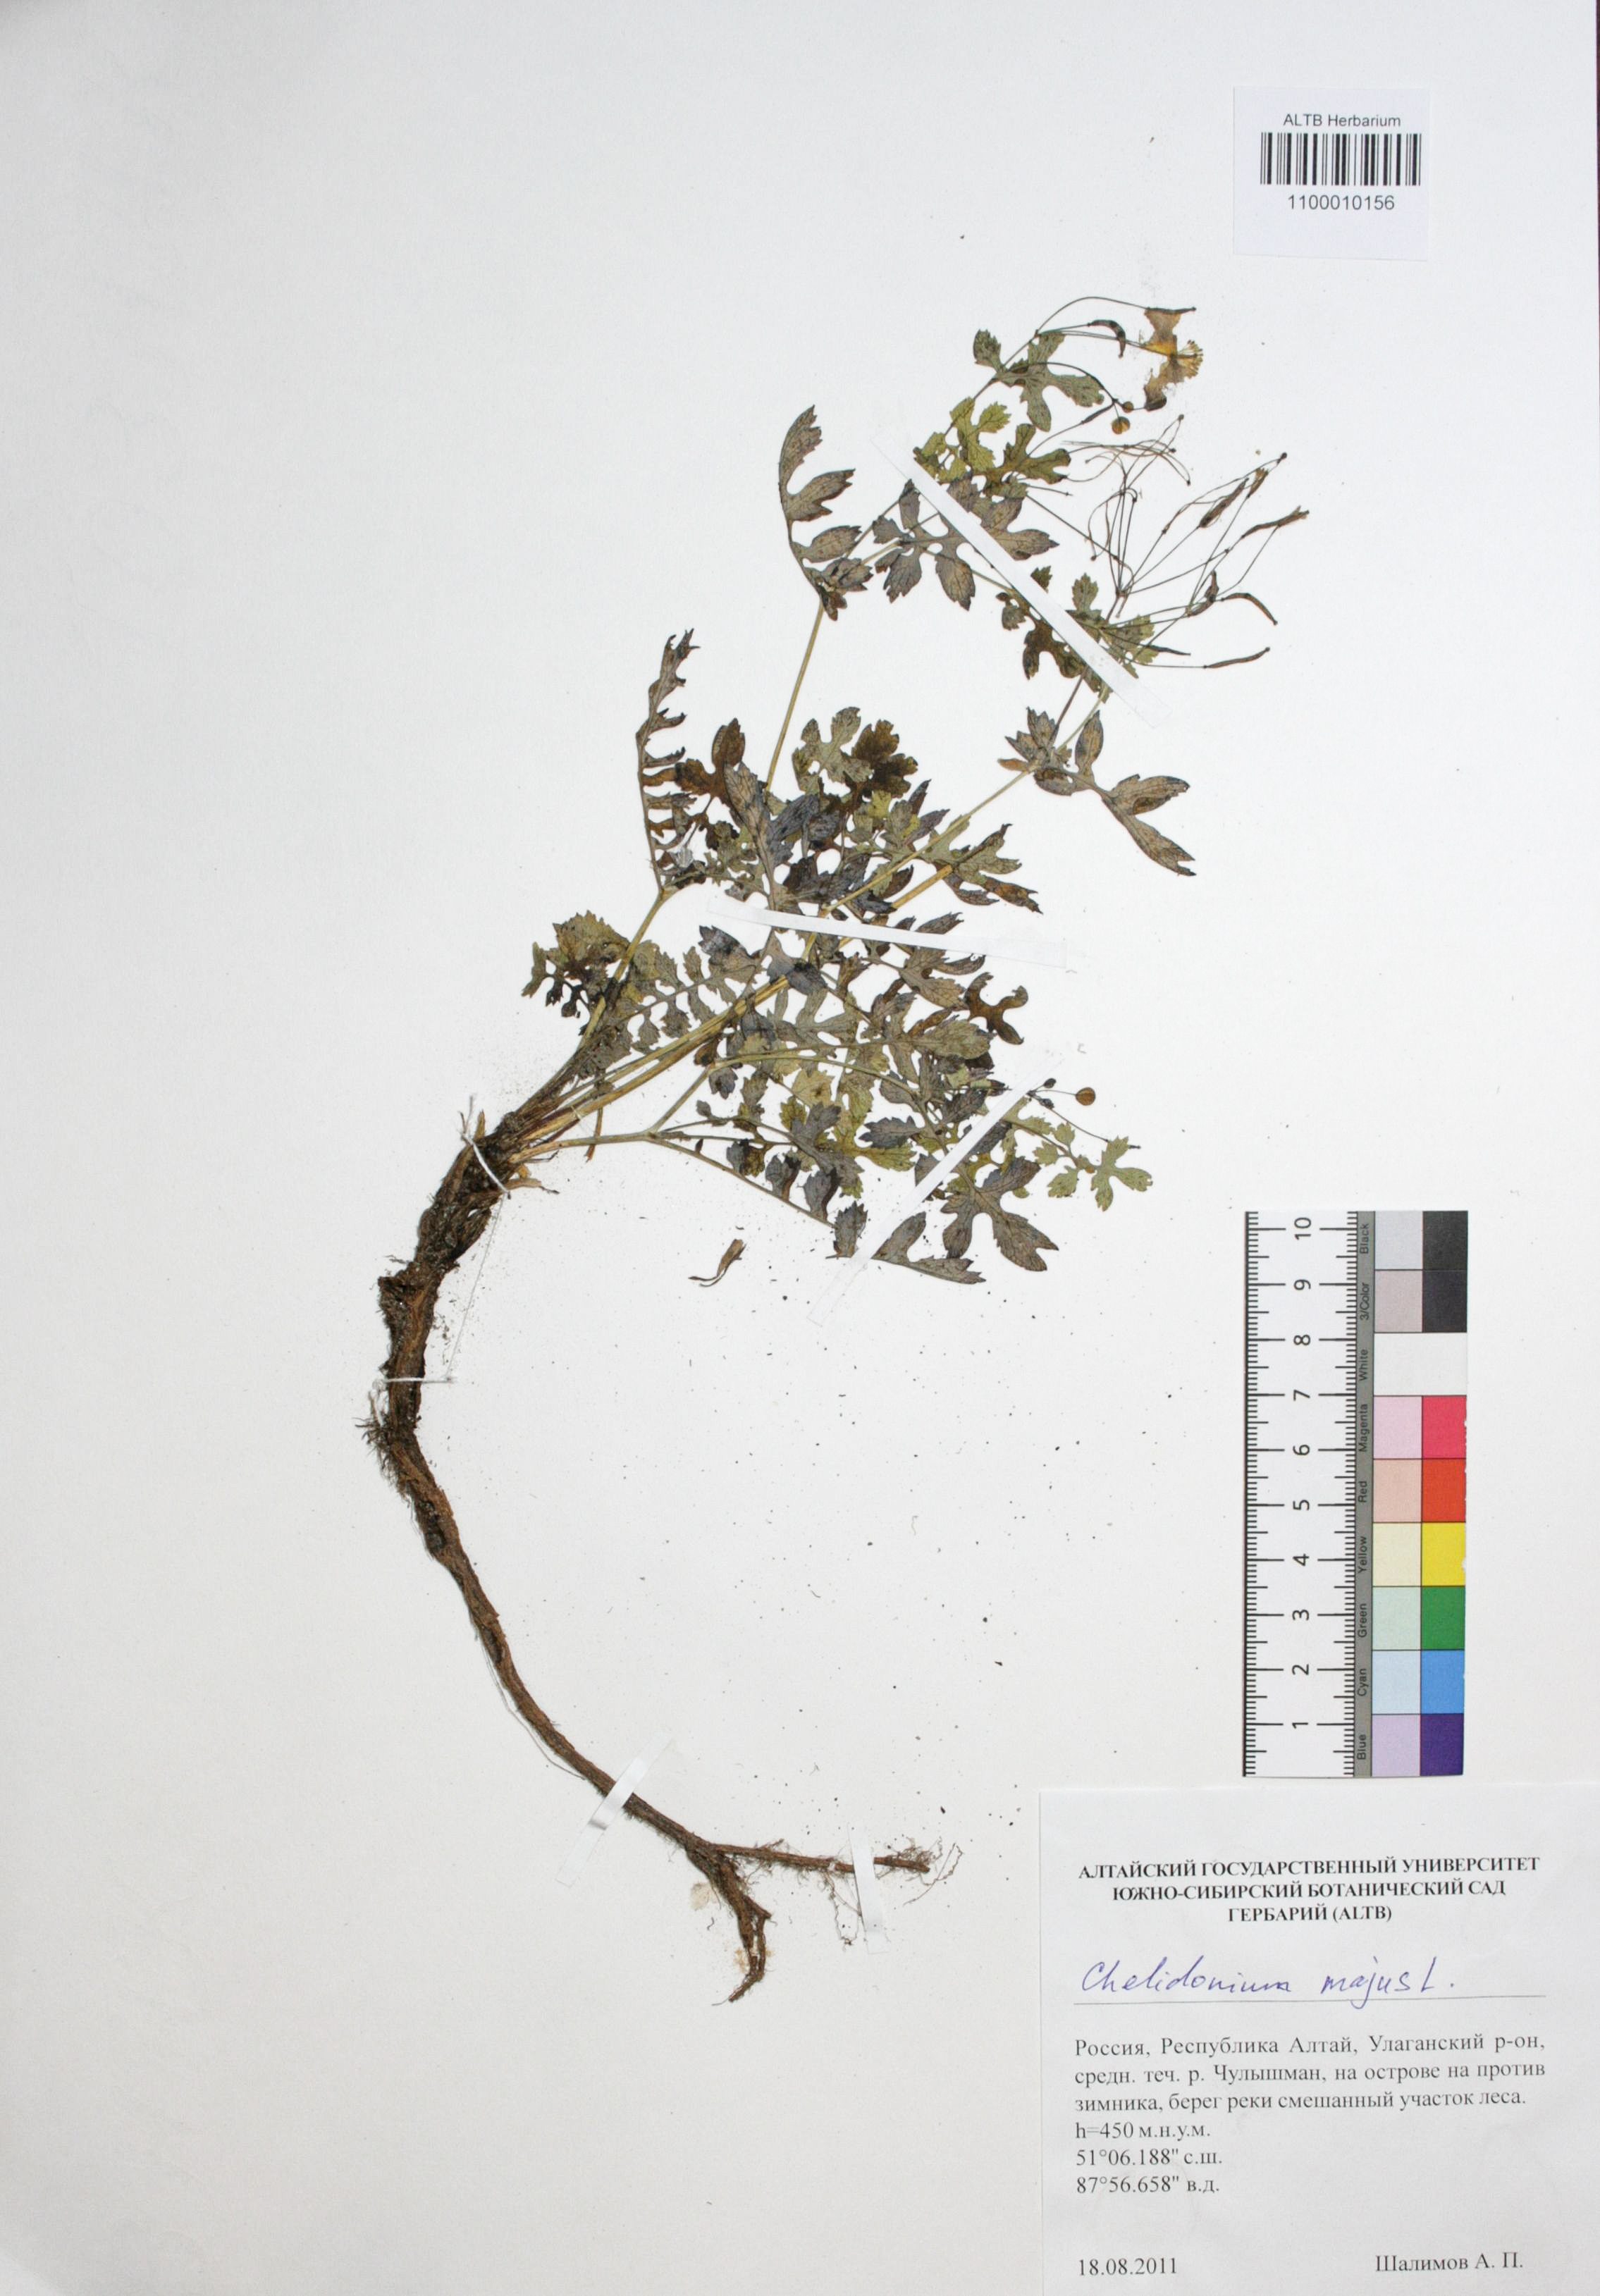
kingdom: Plantae
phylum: Tracheophyta
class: Magnoliopsida
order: Ranunculales
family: Papaveraceae
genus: Chelidonium
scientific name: Chelidonium majus
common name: Greater celandine
